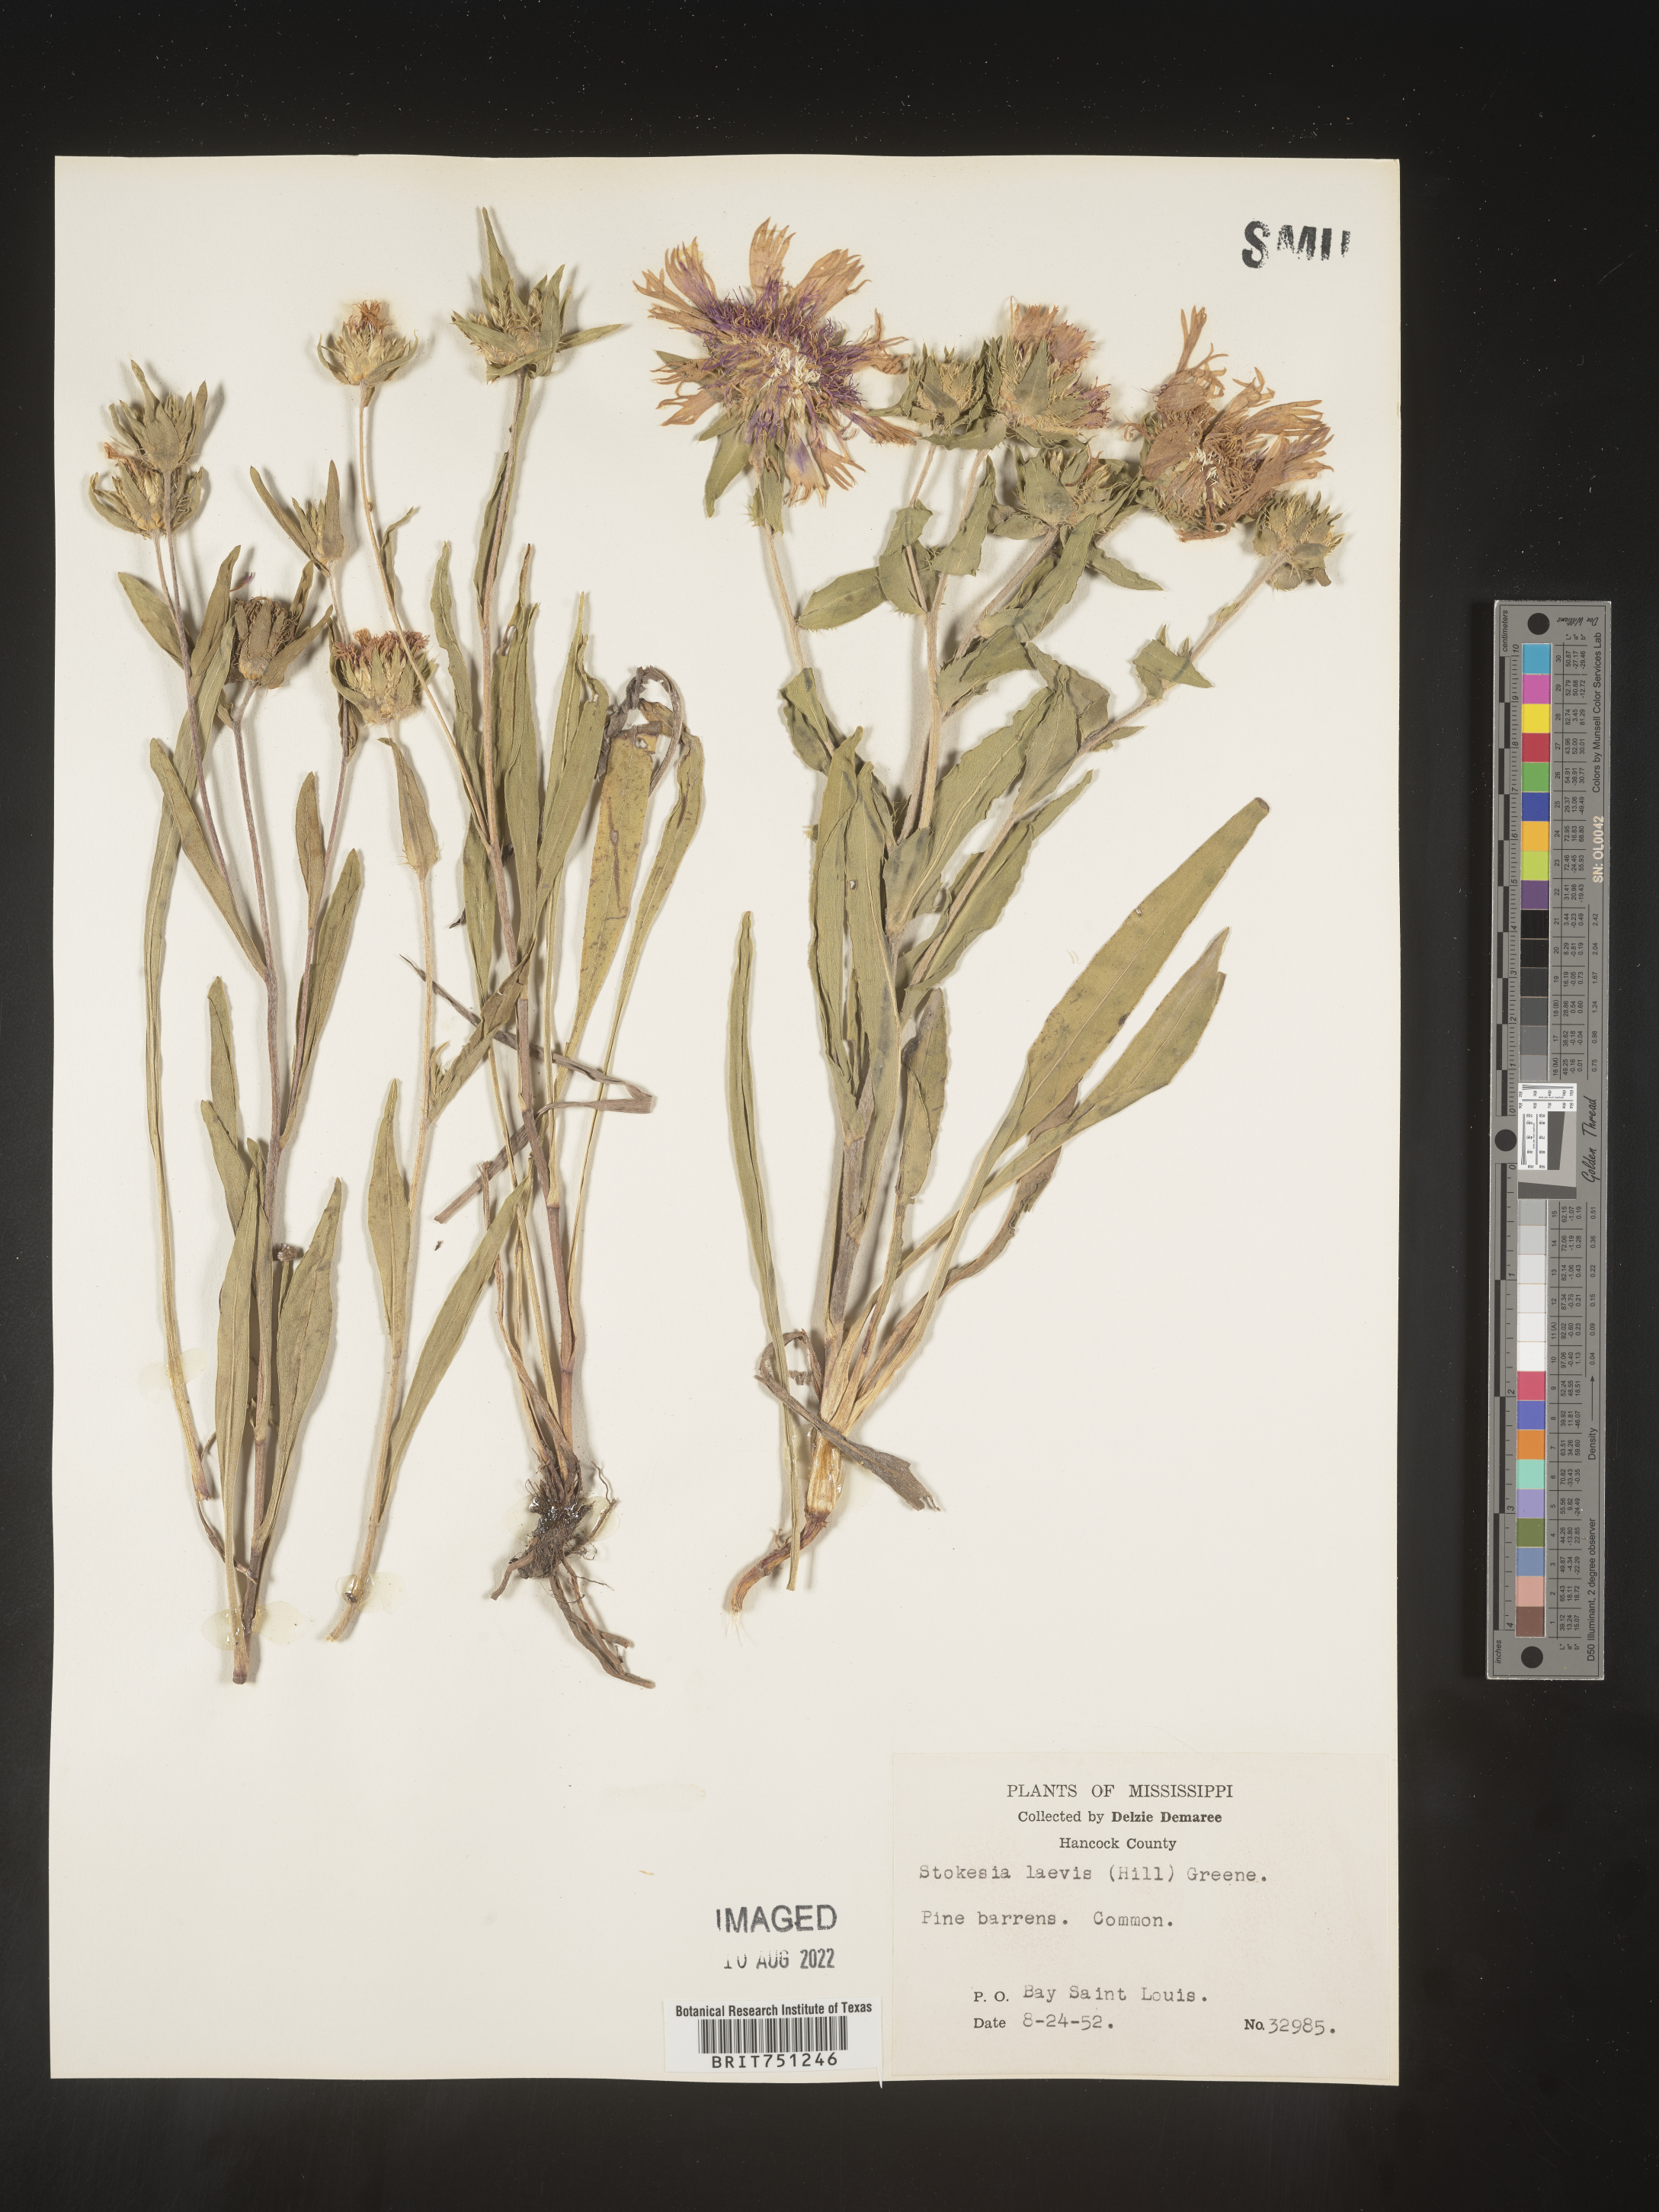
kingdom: Plantae
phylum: Tracheophyta
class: Magnoliopsida
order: Asterales
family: Asteraceae
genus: Stokesia
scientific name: Stokesia
